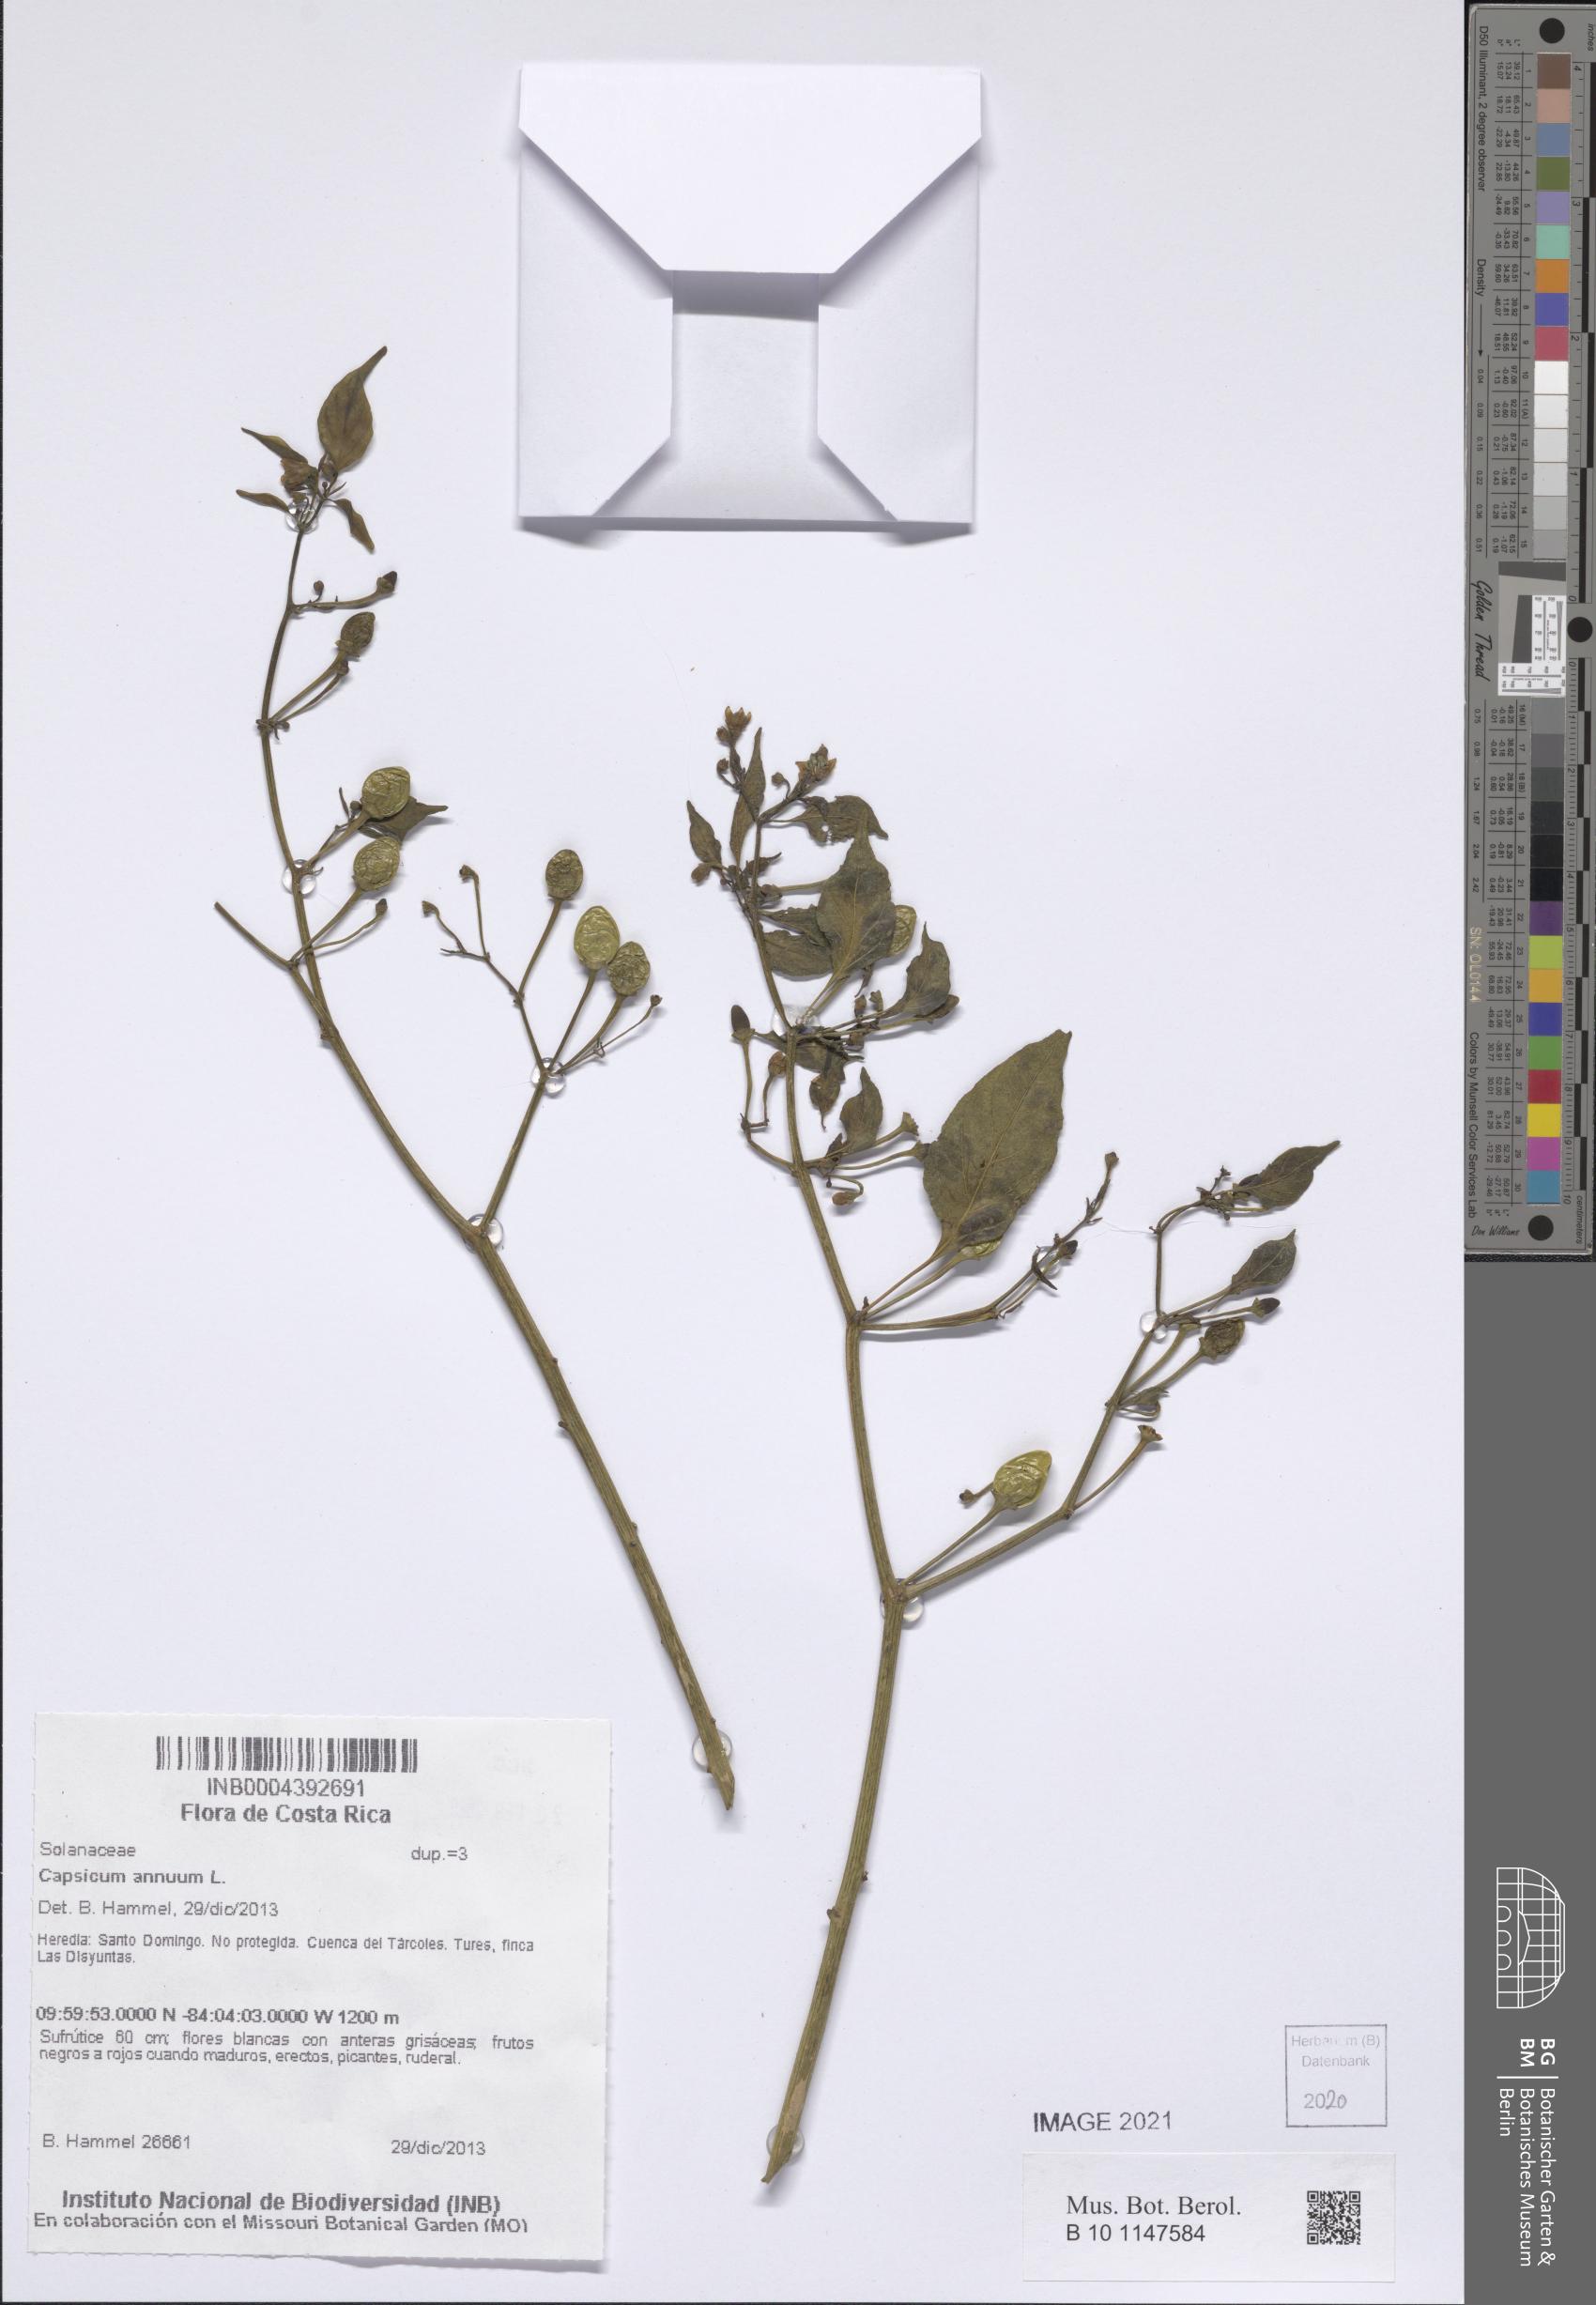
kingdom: Plantae
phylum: Tracheophyta
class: Magnoliopsida
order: Solanales
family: Solanaceae
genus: Capsicum
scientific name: Capsicum annuum
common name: Sweet pepper
